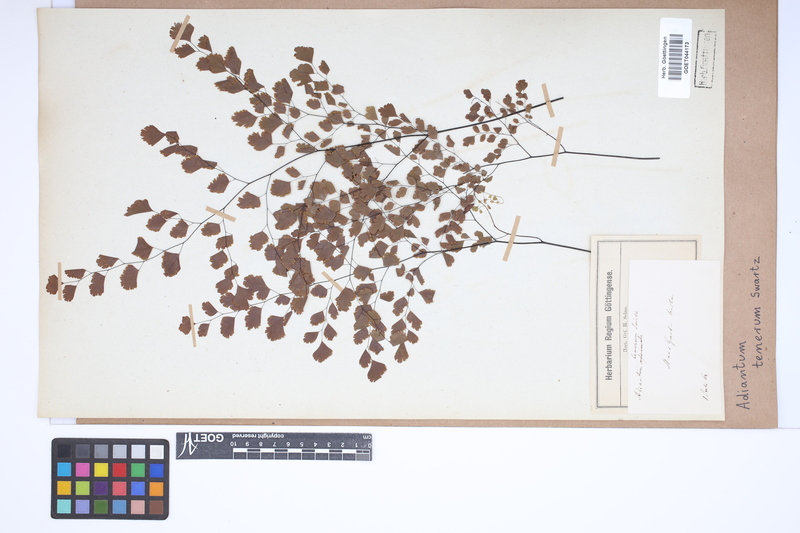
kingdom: Plantae
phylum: Tracheophyta
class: Polypodiopsida
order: Polypodiales
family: Pteridaceae
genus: Adiantum
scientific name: Adiantum tenerum
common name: Fan maidenhair
